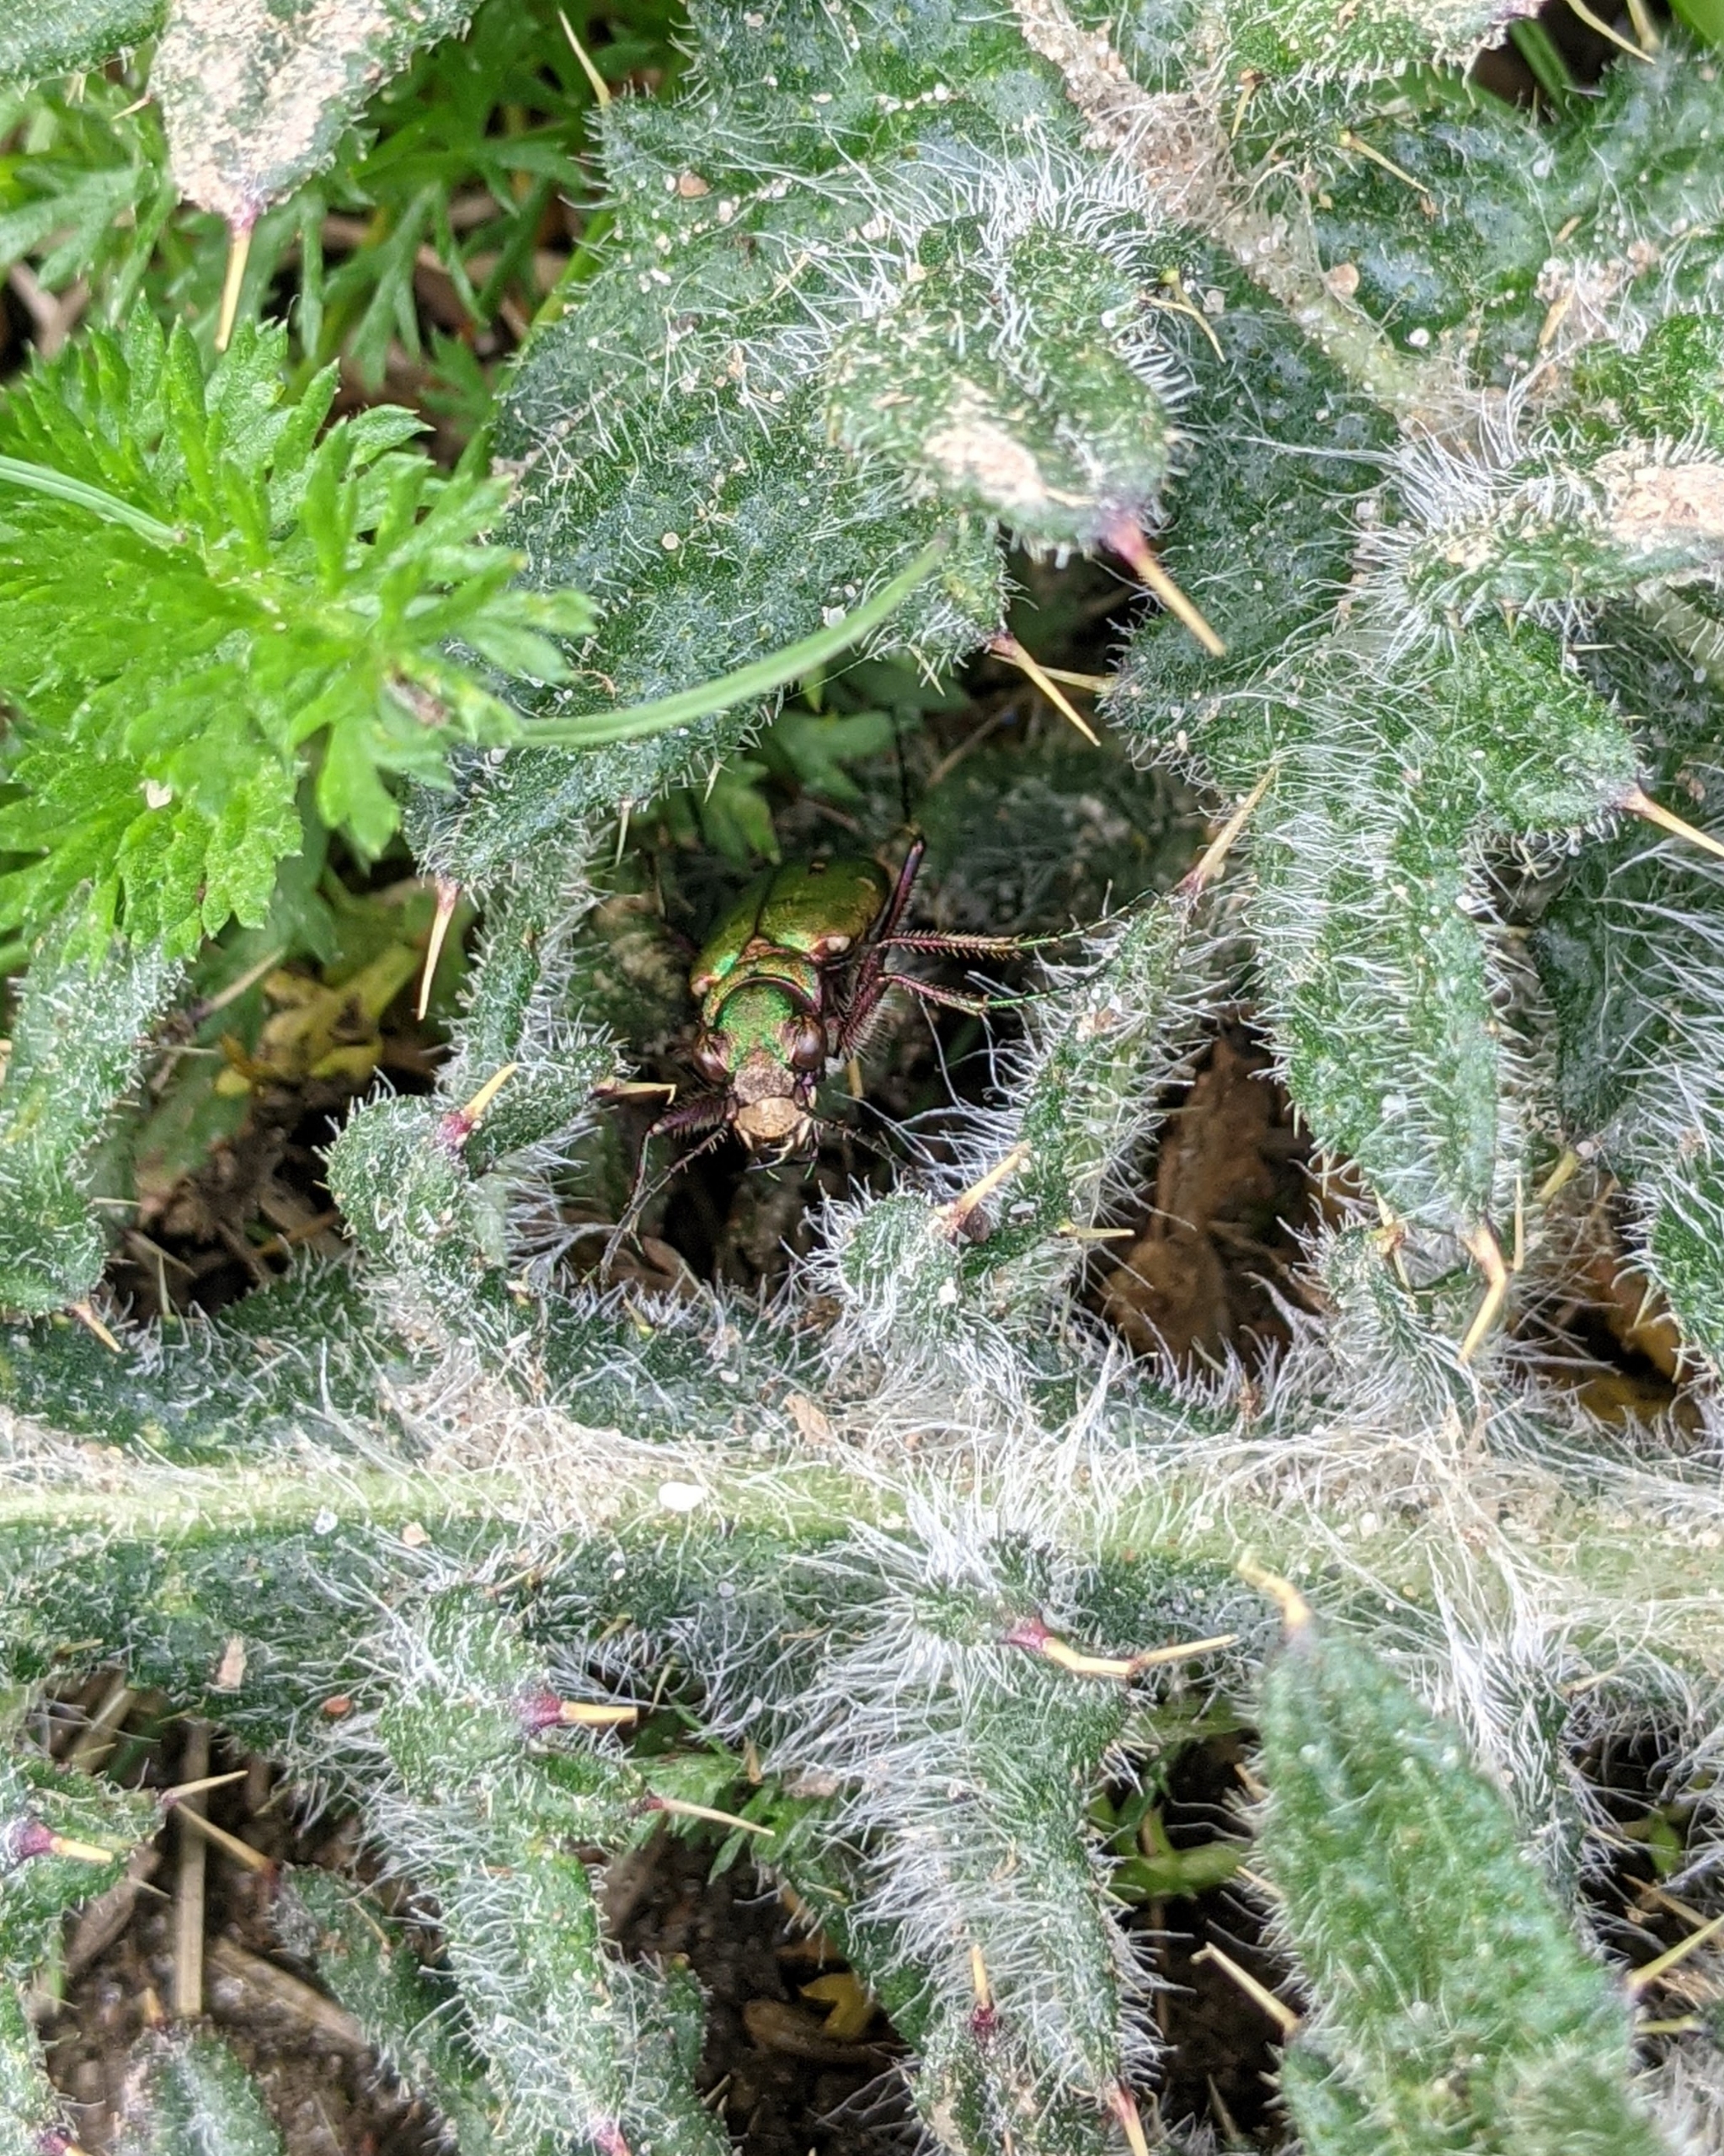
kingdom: Animalia
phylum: Arthropoda
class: Insecta
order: Coleoptera
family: Carabidae
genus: Cicindela
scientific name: Cicindela campestris
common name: Grøn sandspringer
